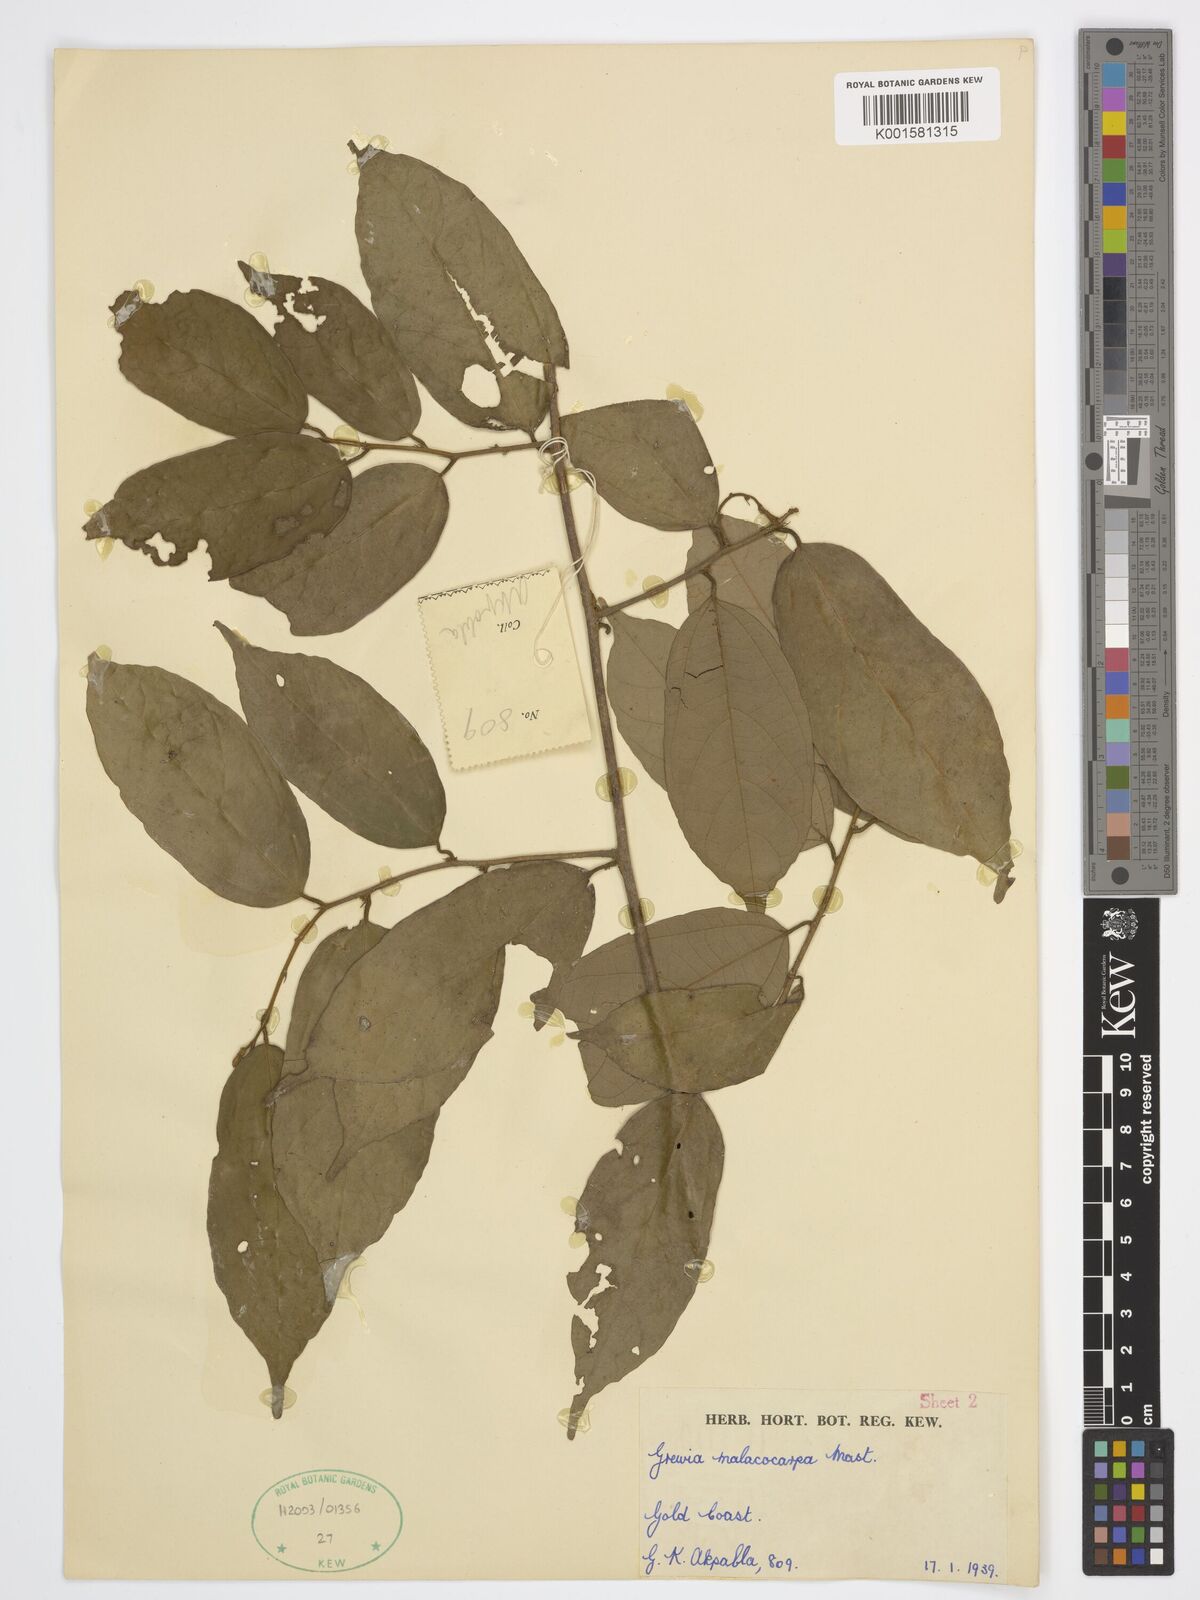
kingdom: Plantae
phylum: Tracheophyta
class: Magnoliopsida
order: Malvales
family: Malvaceae
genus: Microcos
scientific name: Microcos malacocarpa
